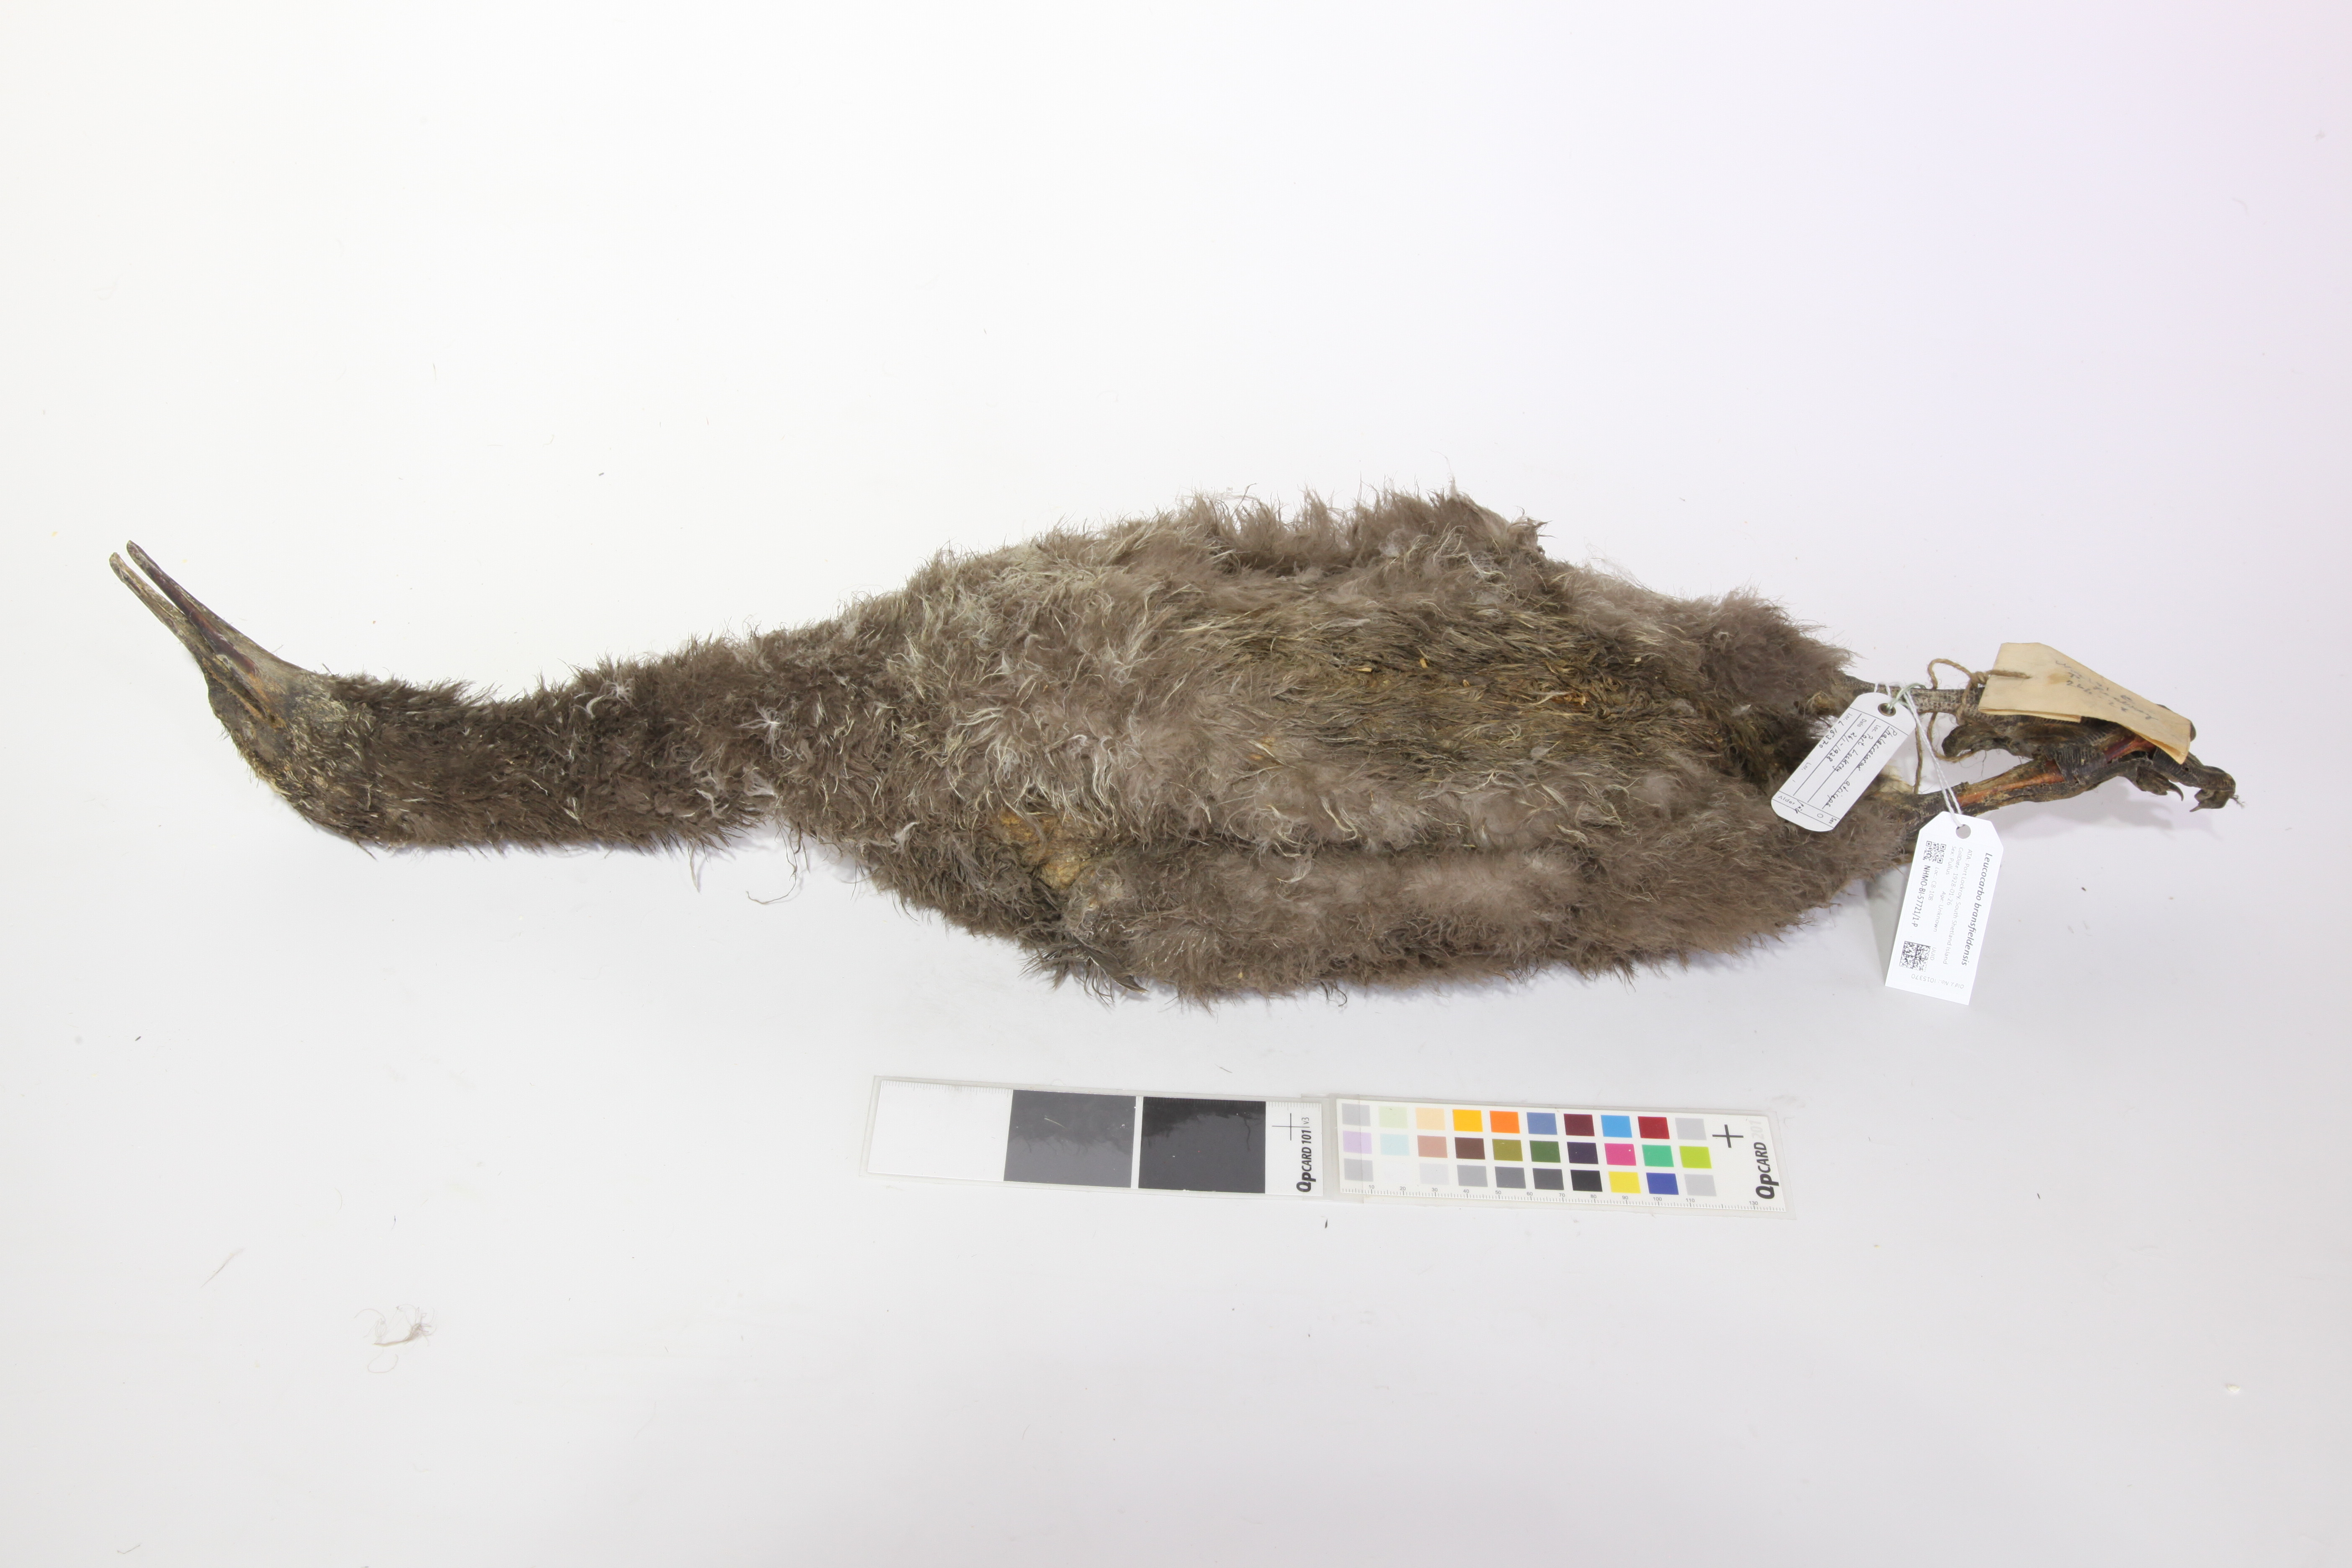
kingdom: Animalia
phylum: Chordata
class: Aves
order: Suliformes
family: Phalacrocoracidae
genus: Leucocarbo
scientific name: Leucocarbo atriceps
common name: Imperial shag
